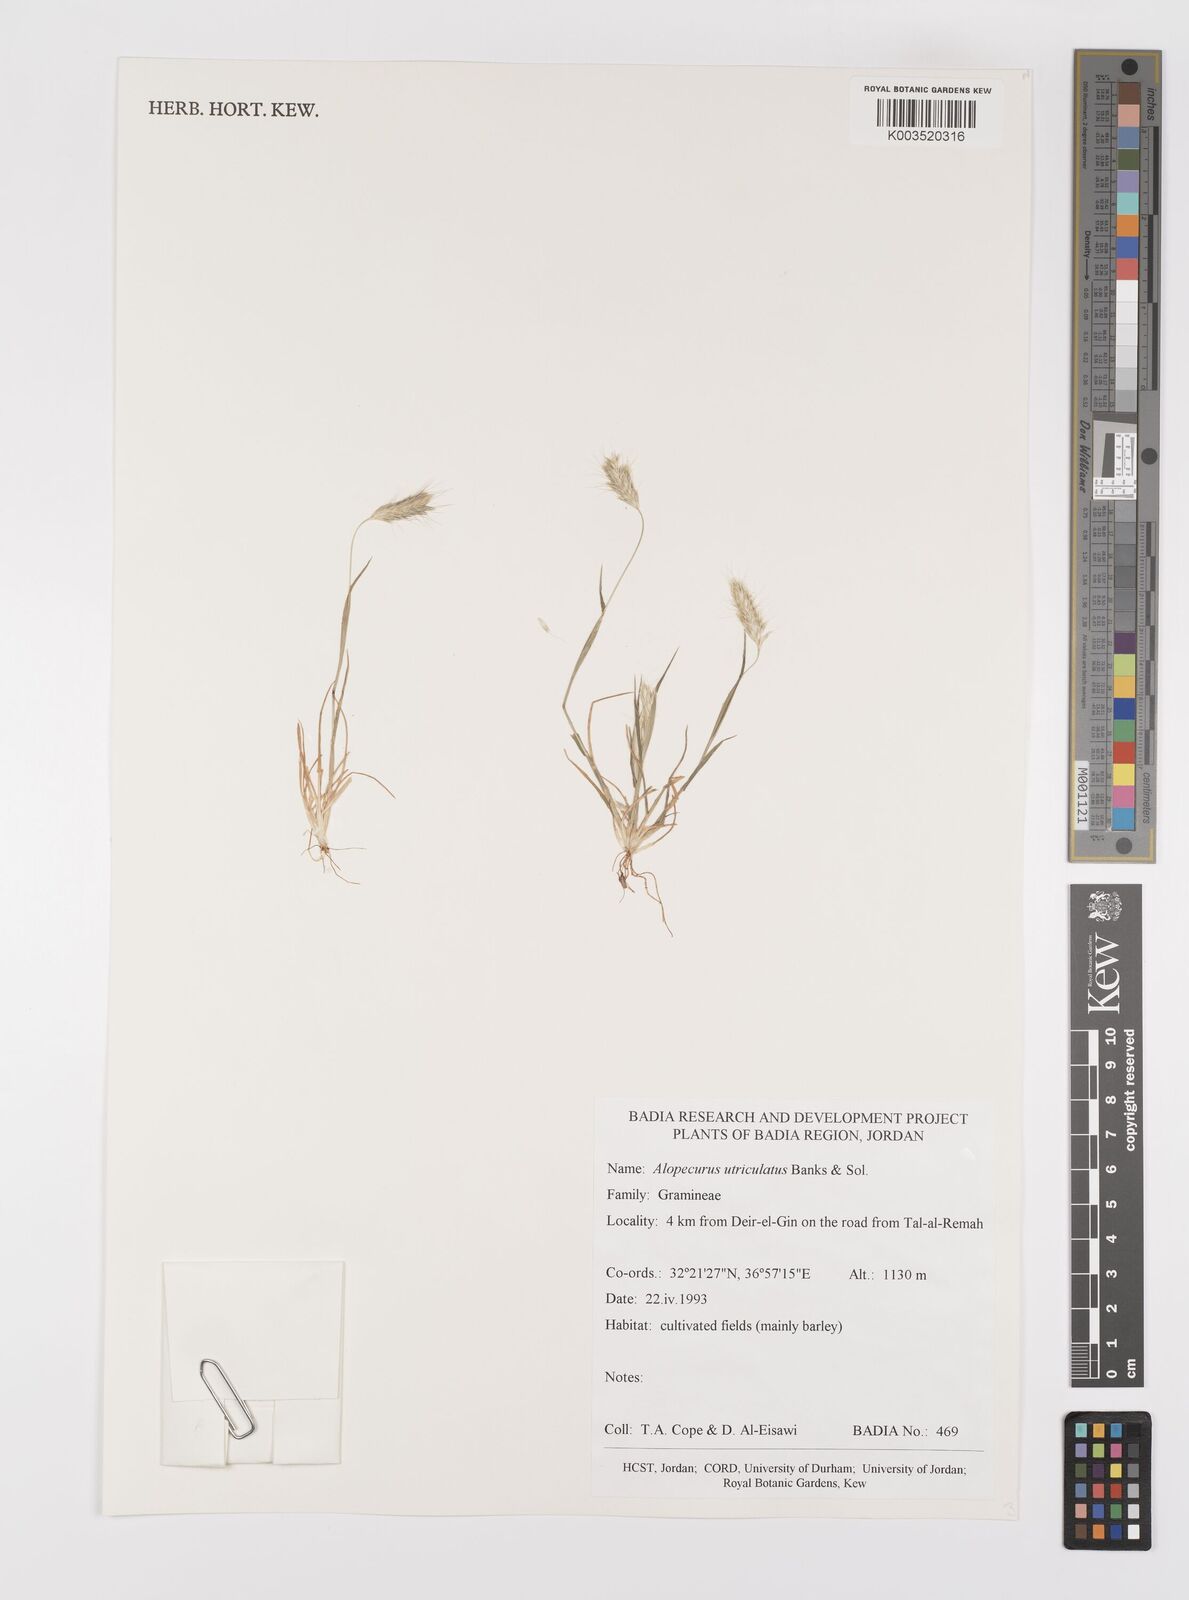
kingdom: Plantae
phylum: Tracheophyta
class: Liliopsida
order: Poales
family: Poaceae
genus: Alopecurus
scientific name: Alopecurus utriculatus
